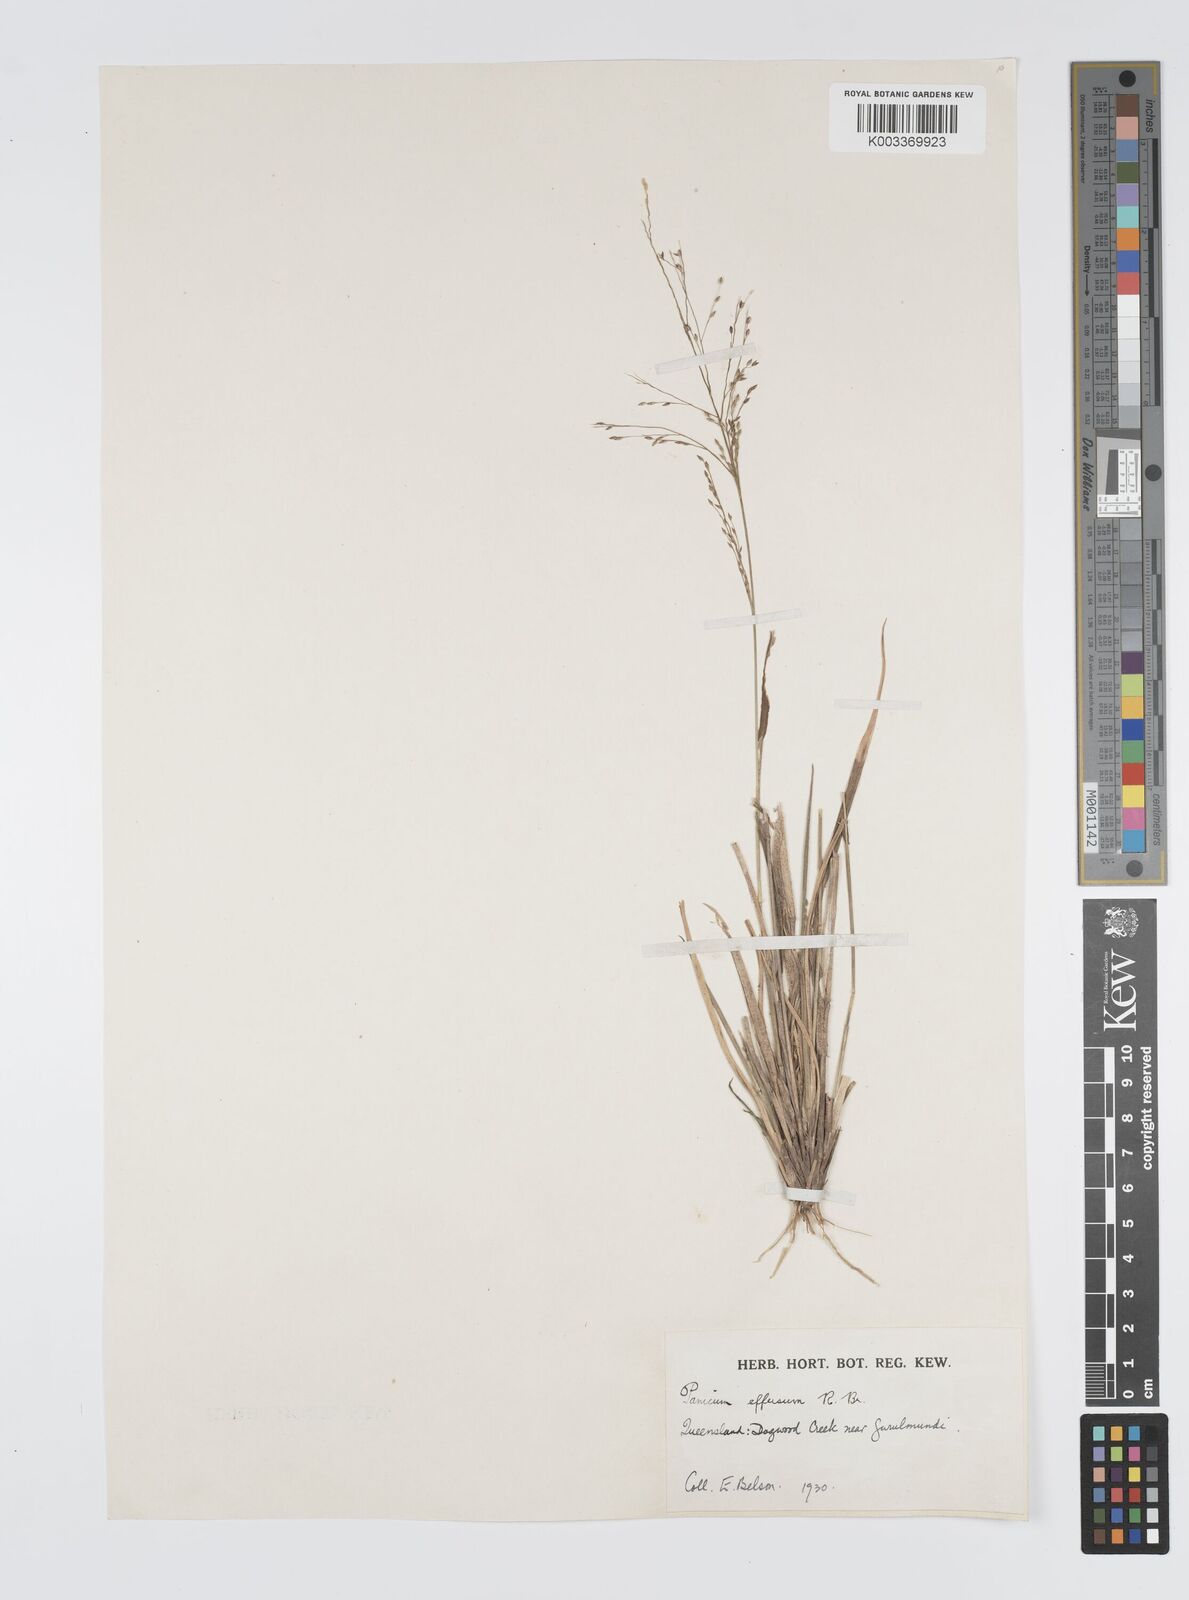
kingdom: Plantae
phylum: Tracheophyta
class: Liliopsida
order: Poales
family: Poaceae
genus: Panicum
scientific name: Panicum effusum
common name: Hairy panic grass
